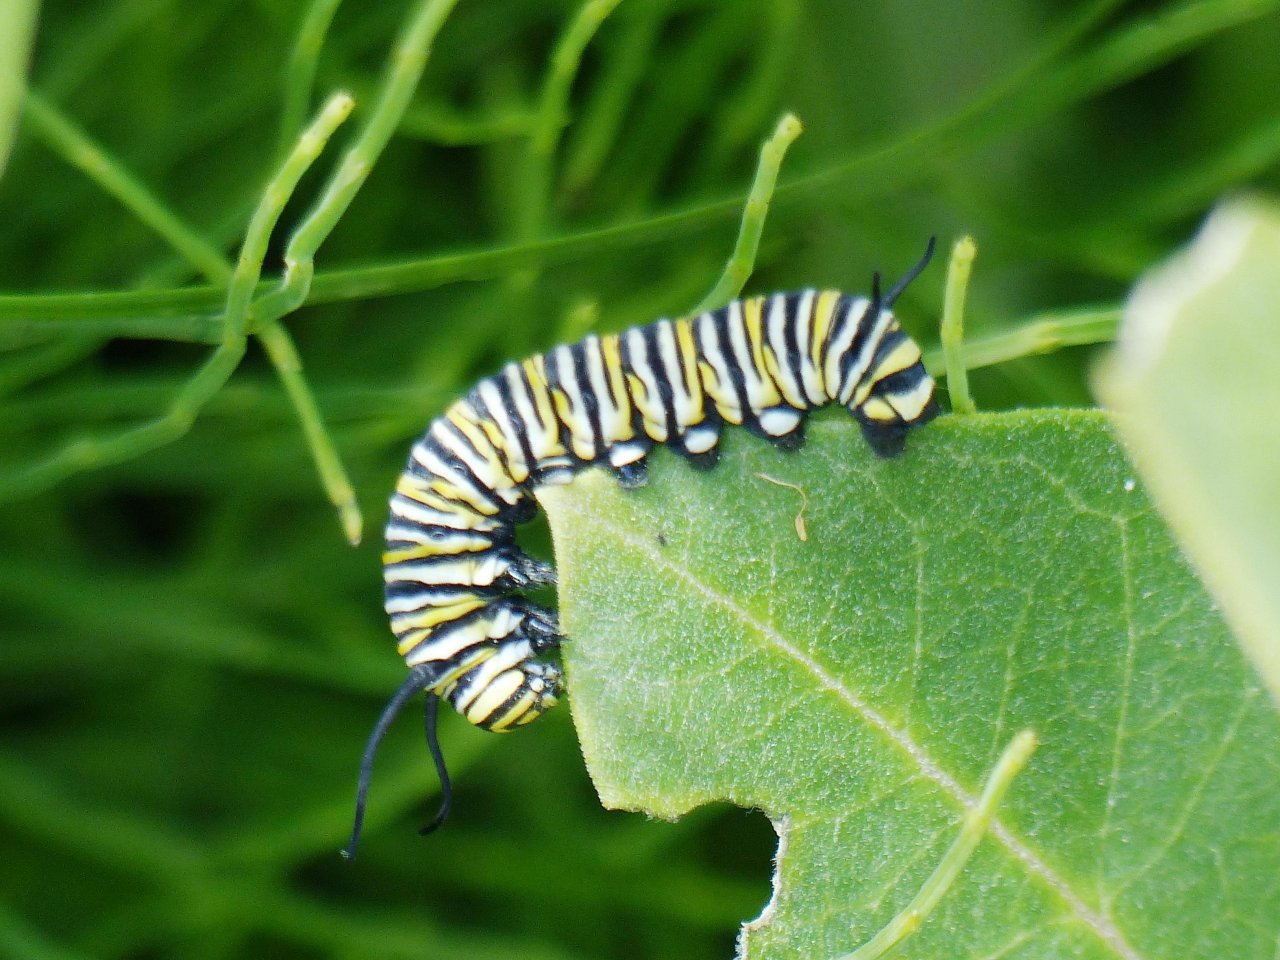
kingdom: Animalia
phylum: Arthropoda
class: Insecta
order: Lepidoptera
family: Nymphalidae
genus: Danaus
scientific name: Danaus plexippus
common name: Monarch
